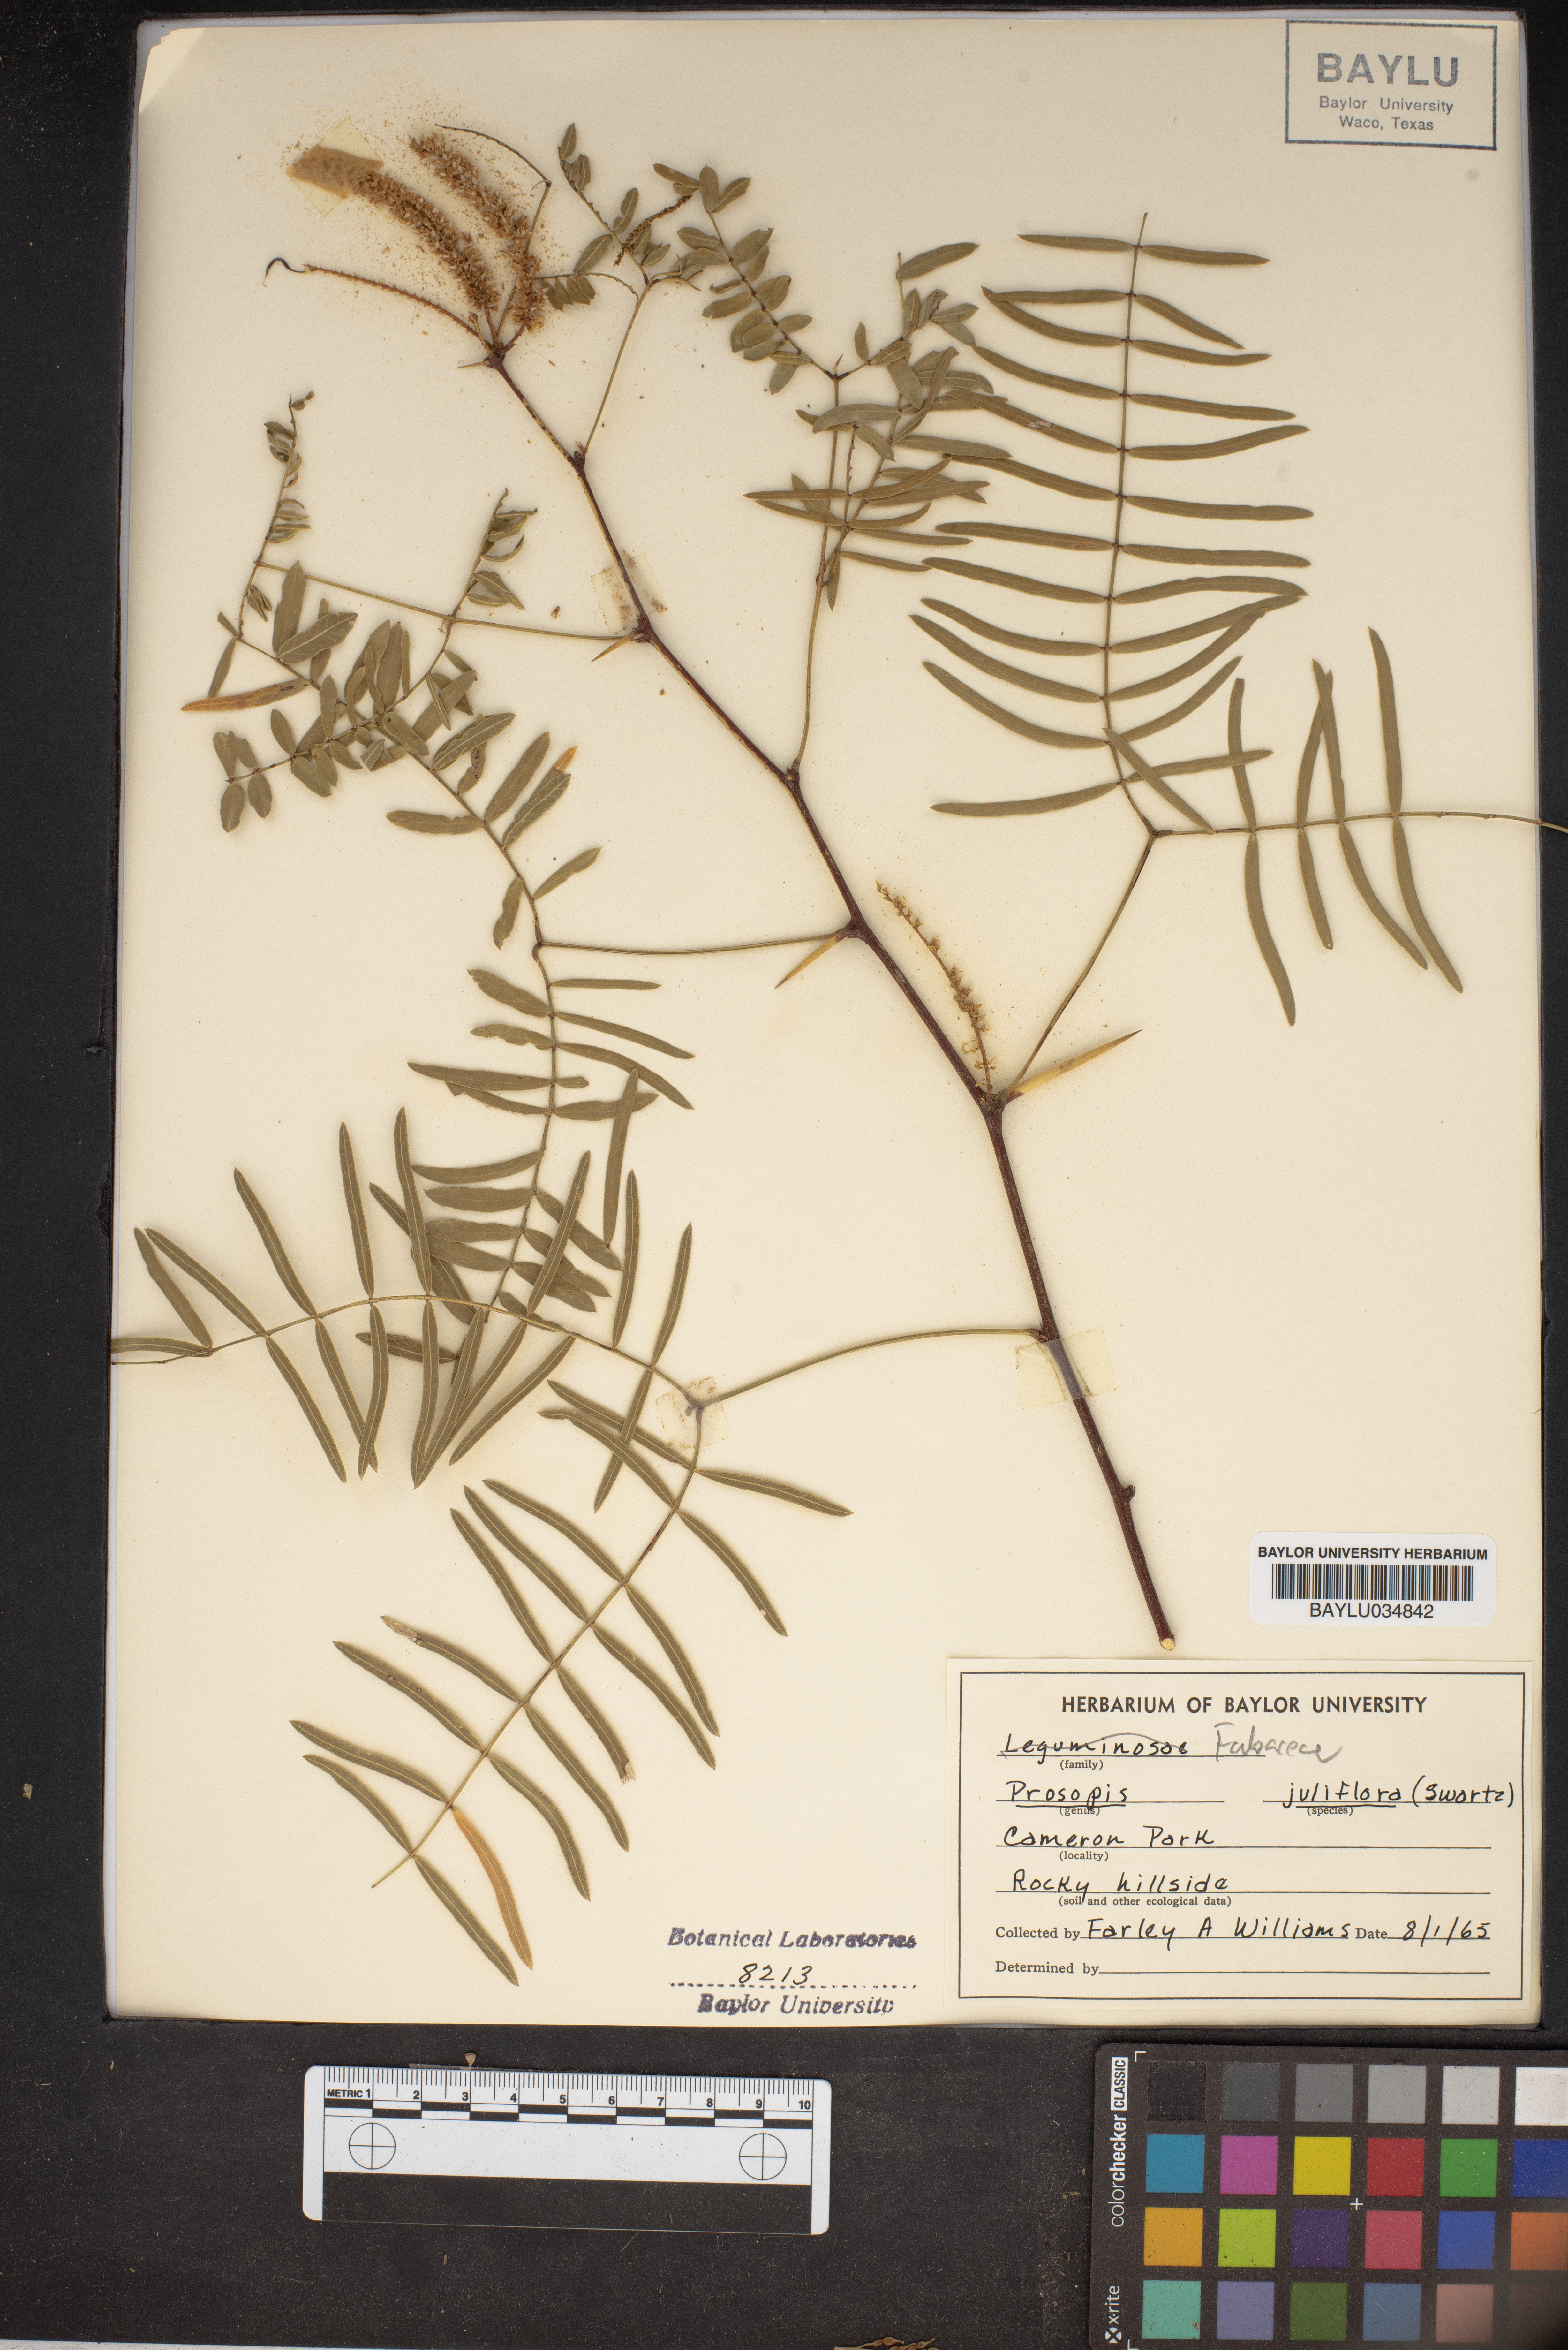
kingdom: Plantae
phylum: Tracheophyta
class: Magnoliopsida
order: Fabales
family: Fabaceae
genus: Prosopis
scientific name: Prosopis juliflora
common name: Mesquite
